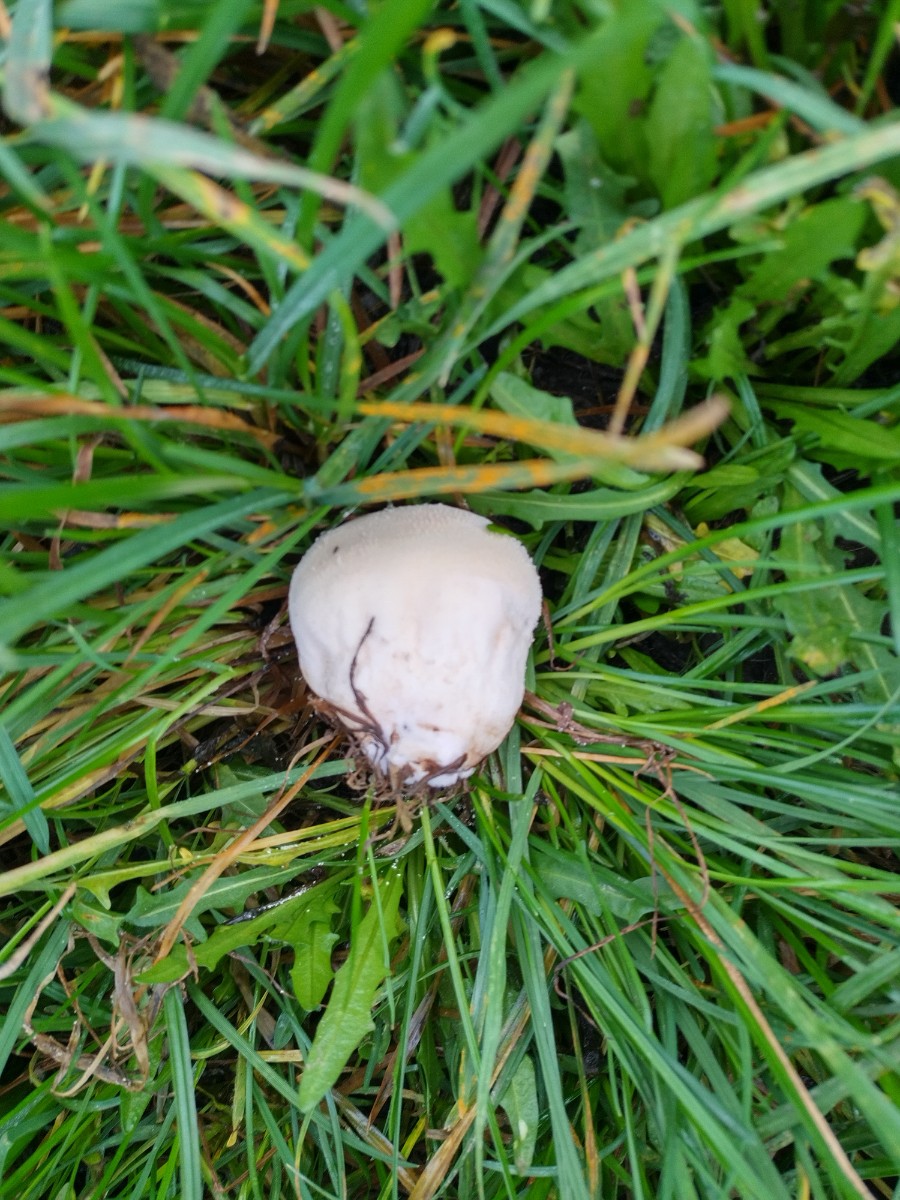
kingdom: Fungi
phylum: Basidiomycota
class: Agaricomycetes
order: Agaricales
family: Lycoperdaceae
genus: Lycoperdon
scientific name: Lycoperdon pratense
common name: flad støvbold
